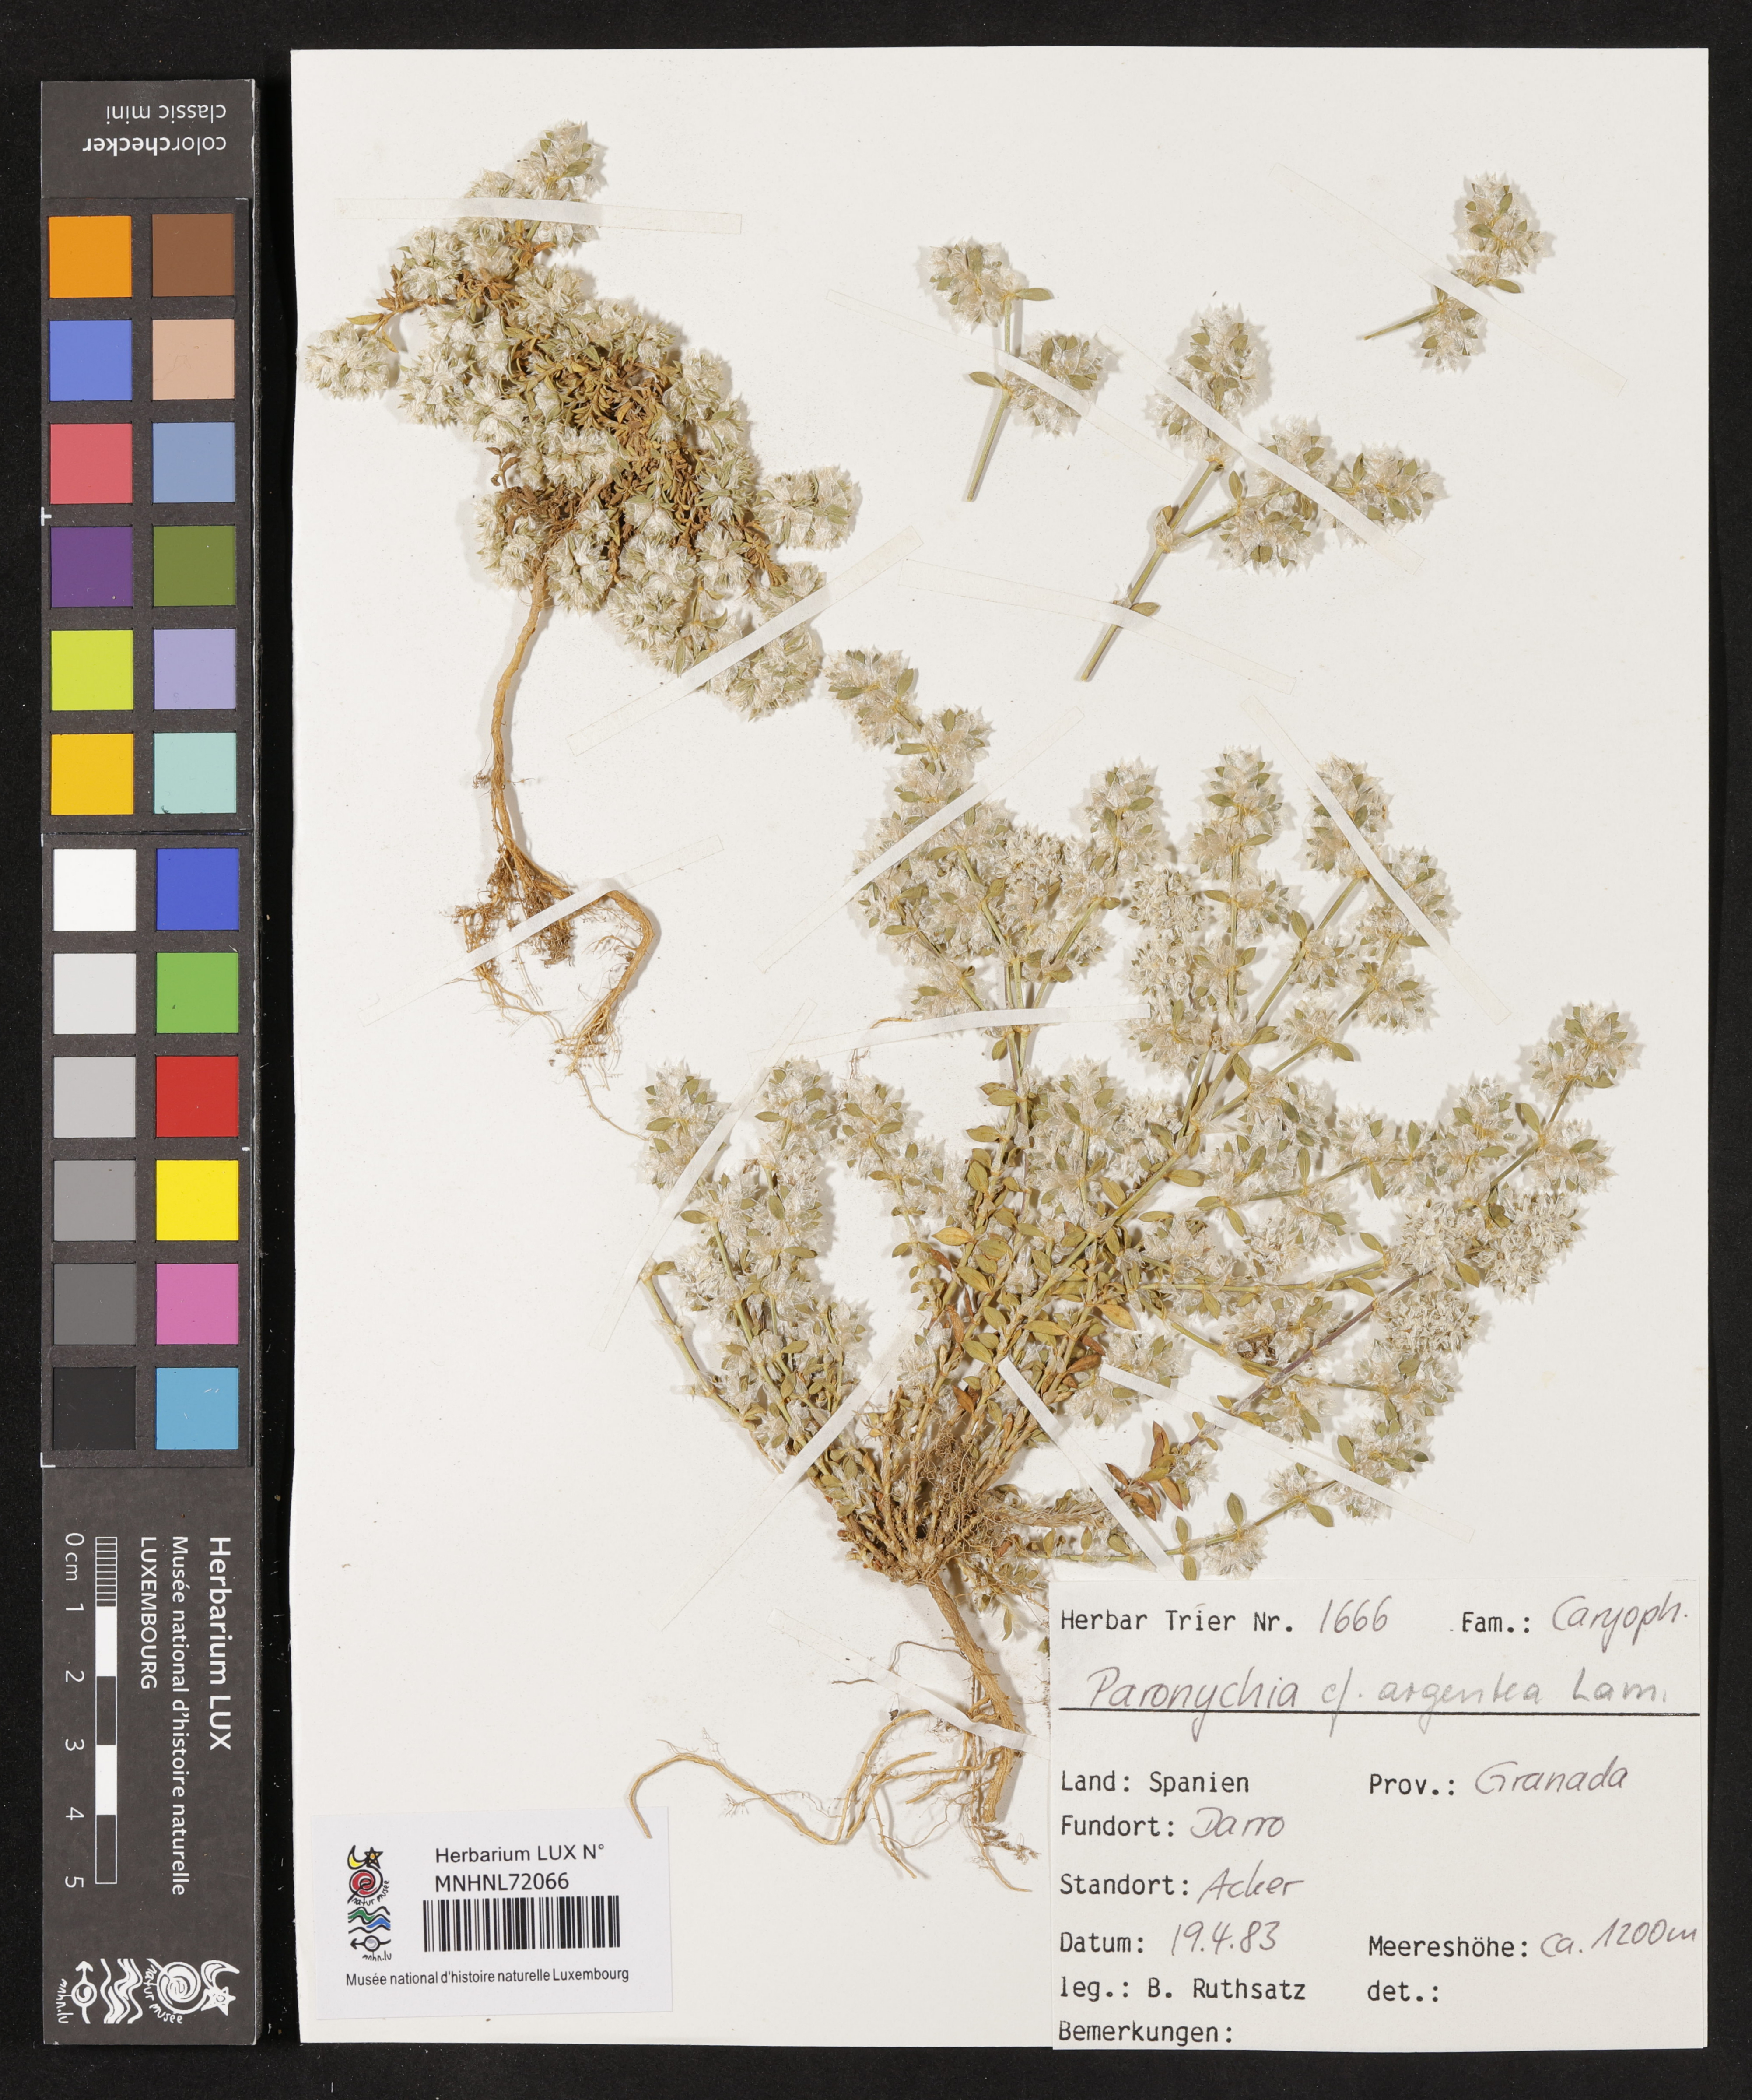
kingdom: Plantae
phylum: Tracheophyta
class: Magnoliopsida
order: Caryophyllales
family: Caryophyllaceae
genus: Paronychia
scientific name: Paronychia argentea
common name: Silver nailroot
